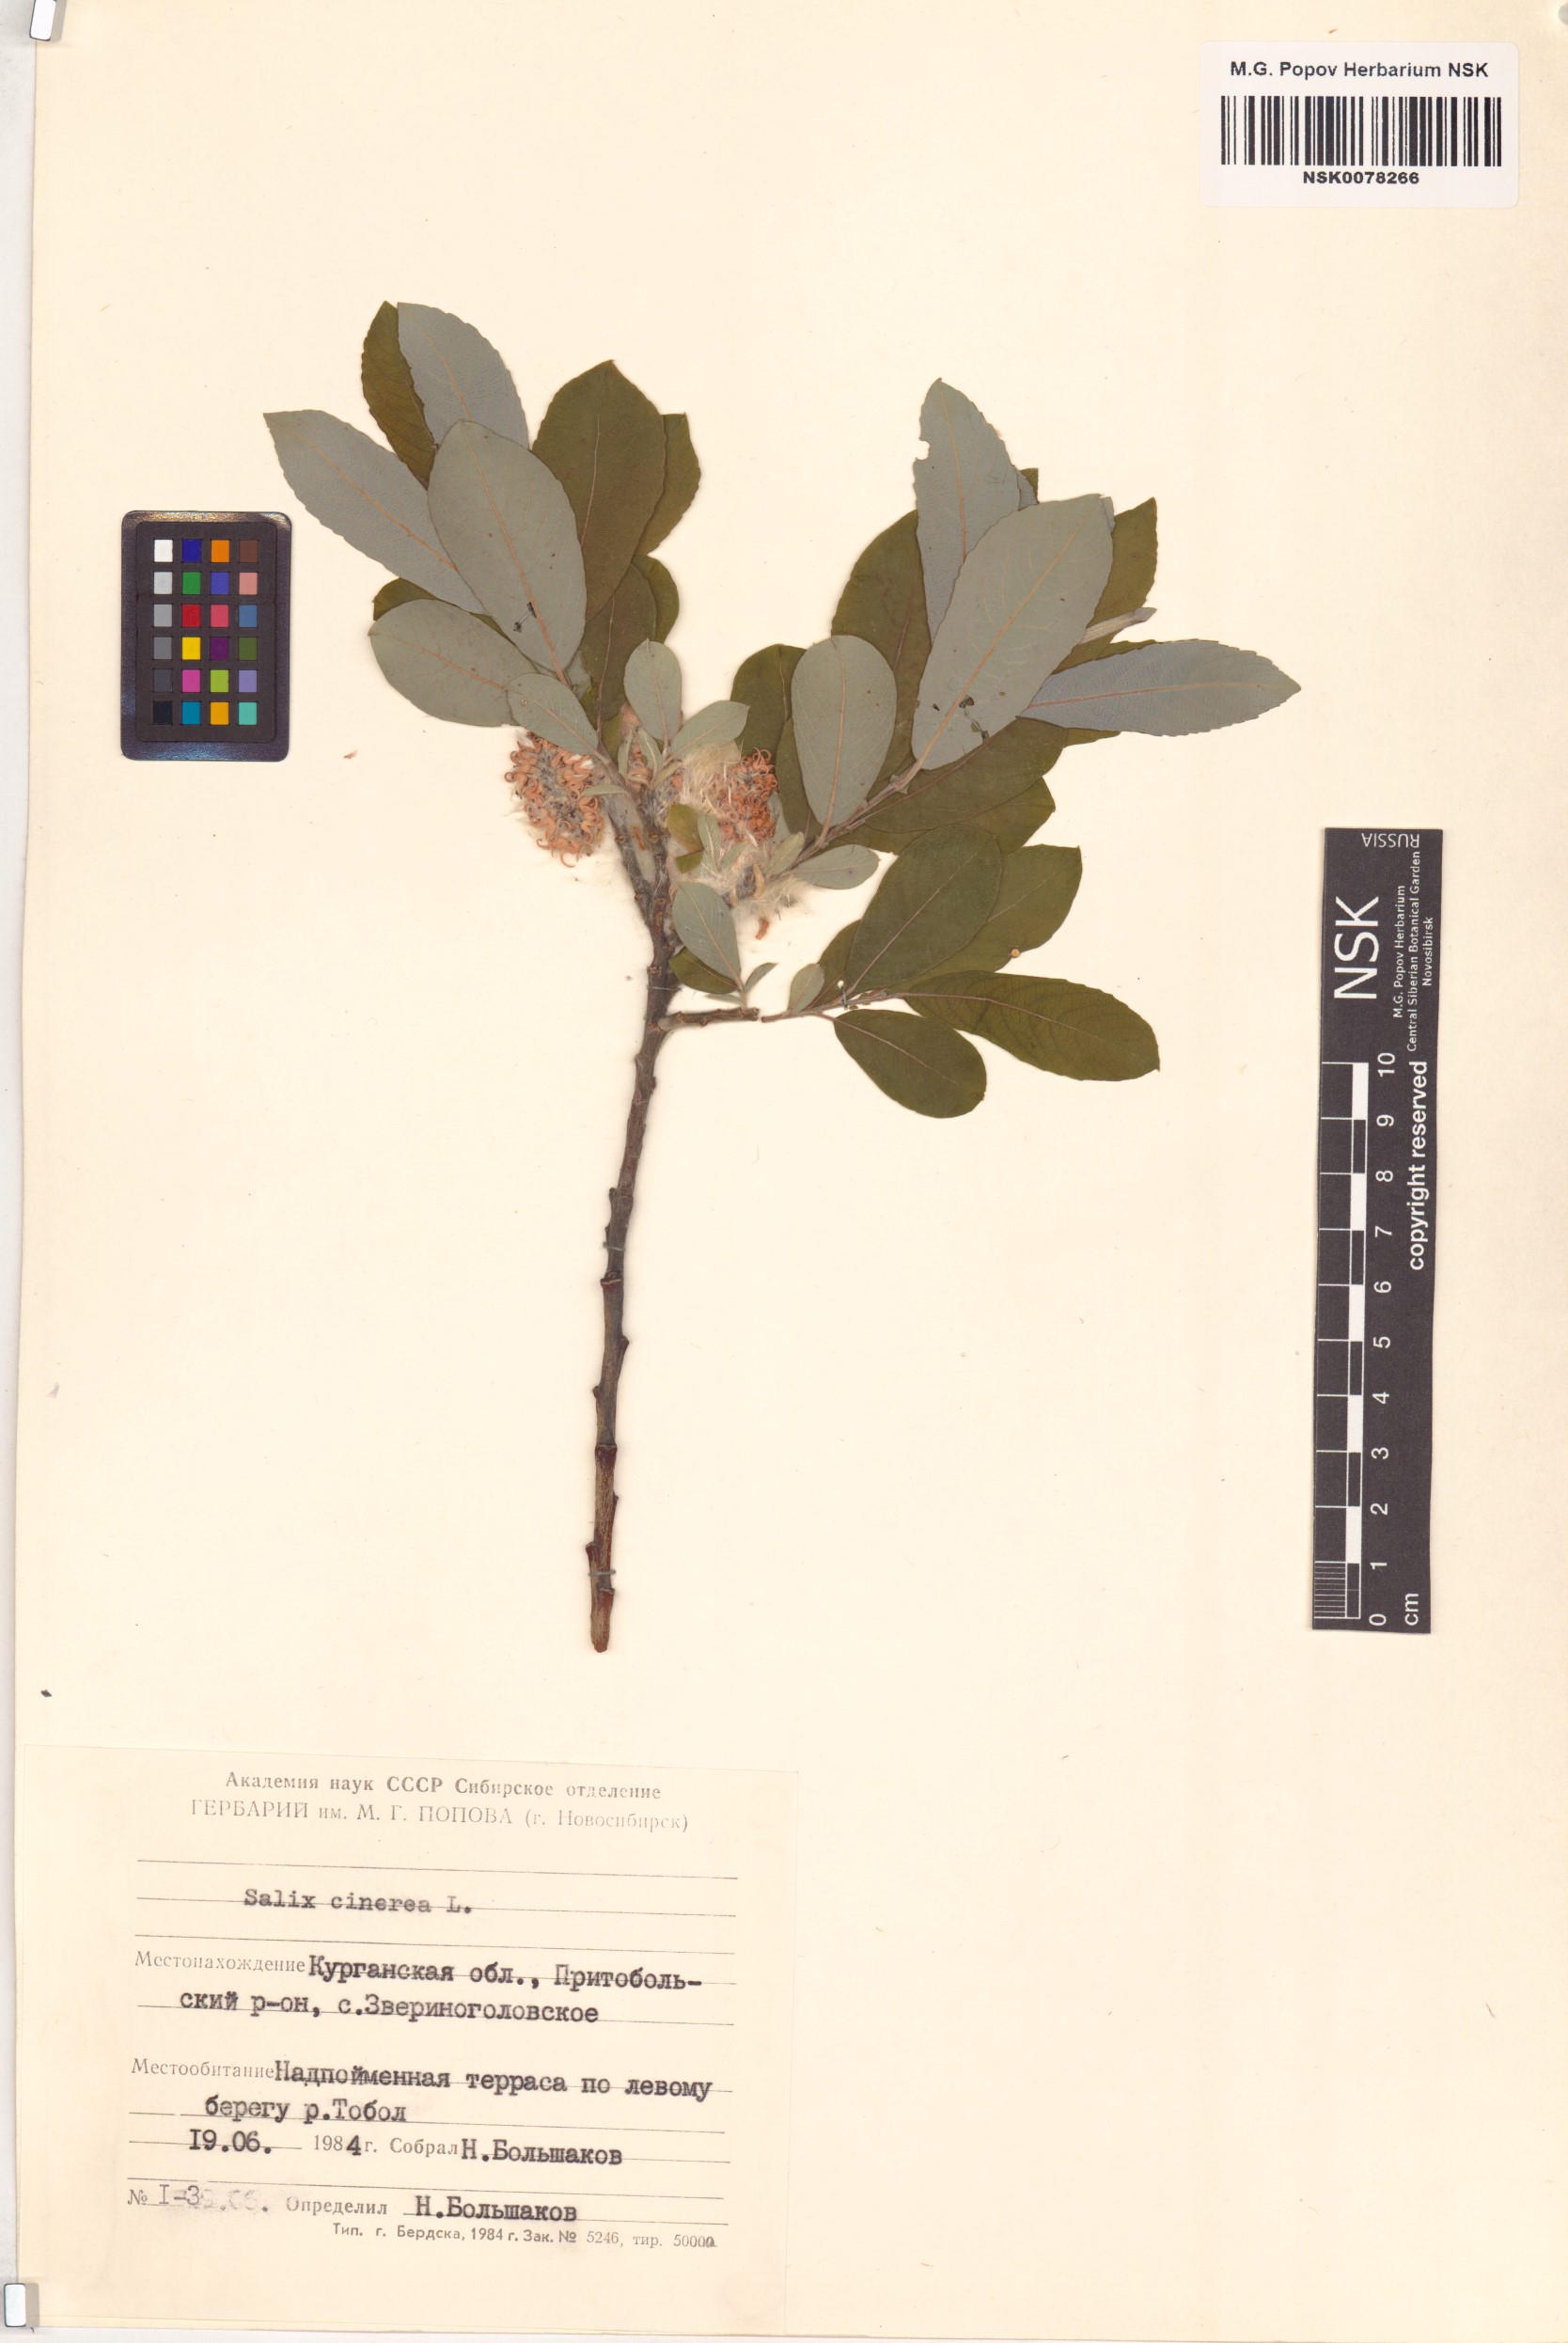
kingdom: Plantae
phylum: Tracheophyta
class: Magnoliopsida
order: Malpighiales
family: Salicaceae
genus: Salix
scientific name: Salix cinerea
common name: Common sallow
